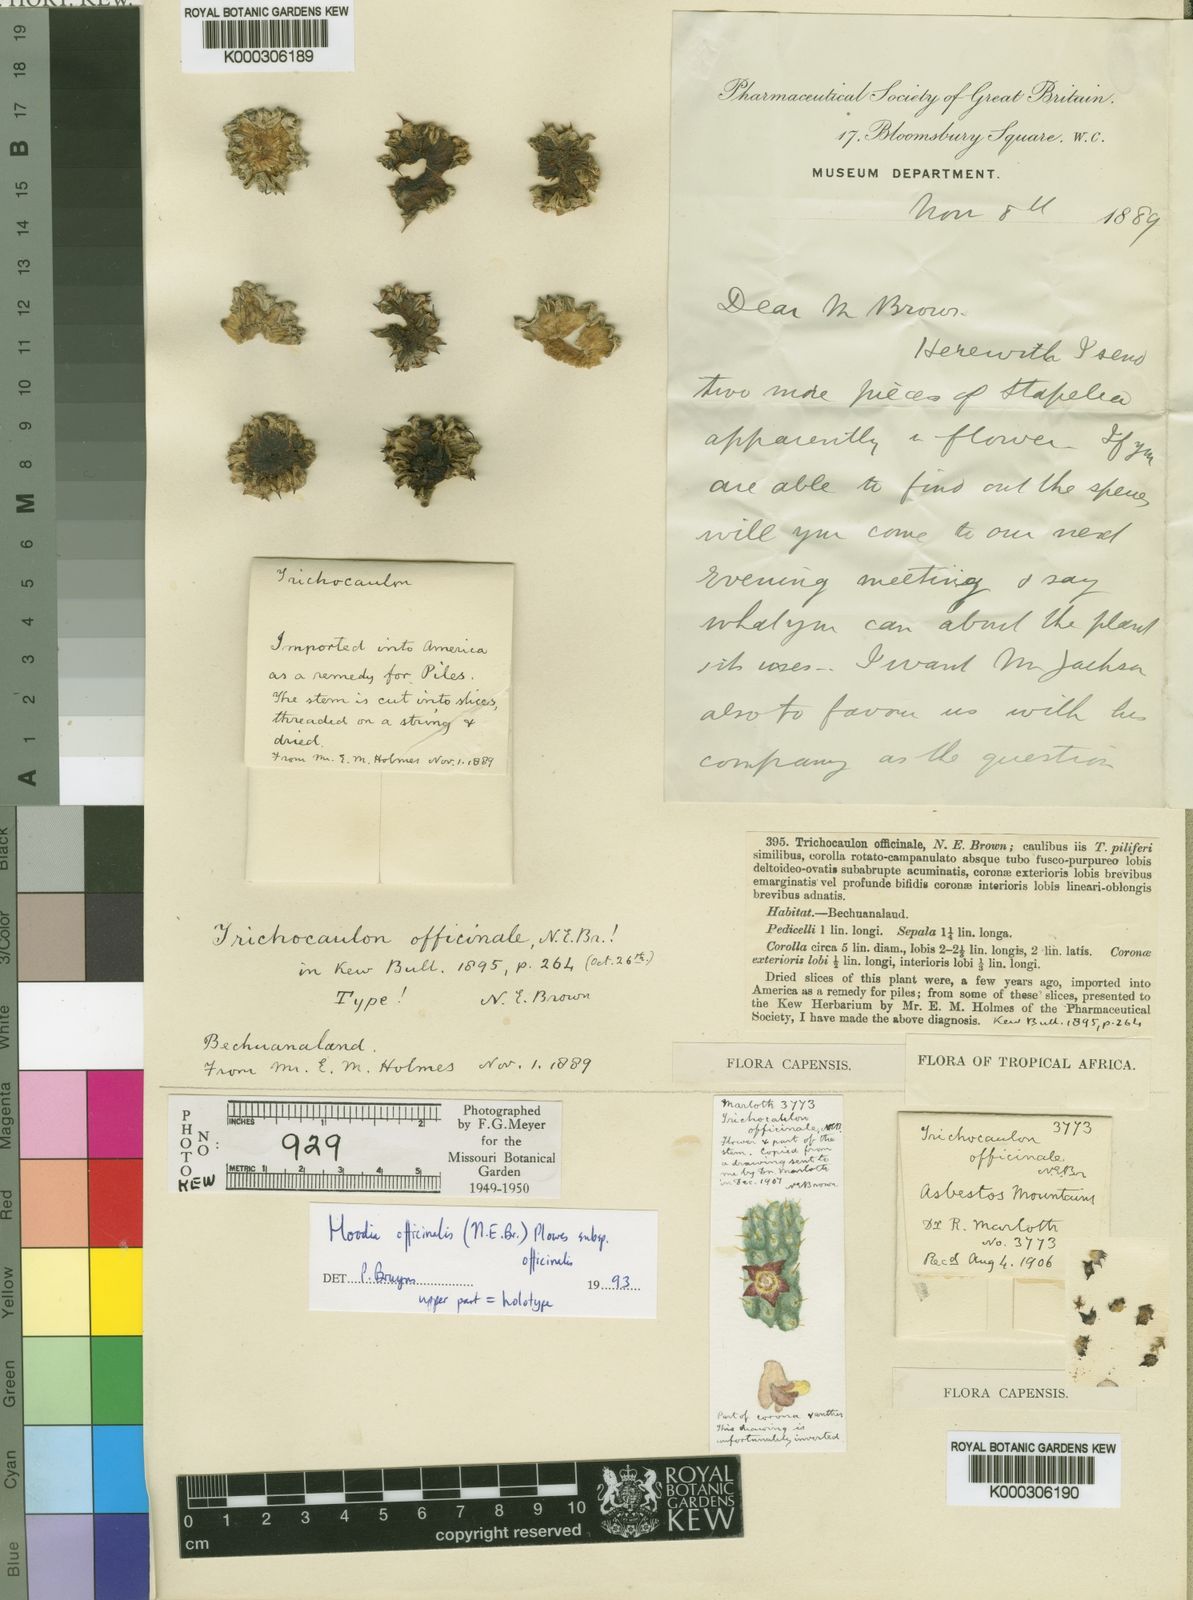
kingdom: Plantae
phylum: Tracheophyta
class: Magnoliopsida
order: Gentianales
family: Apocynaceae
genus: Ceropegia
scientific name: Ceropegia officinalis
